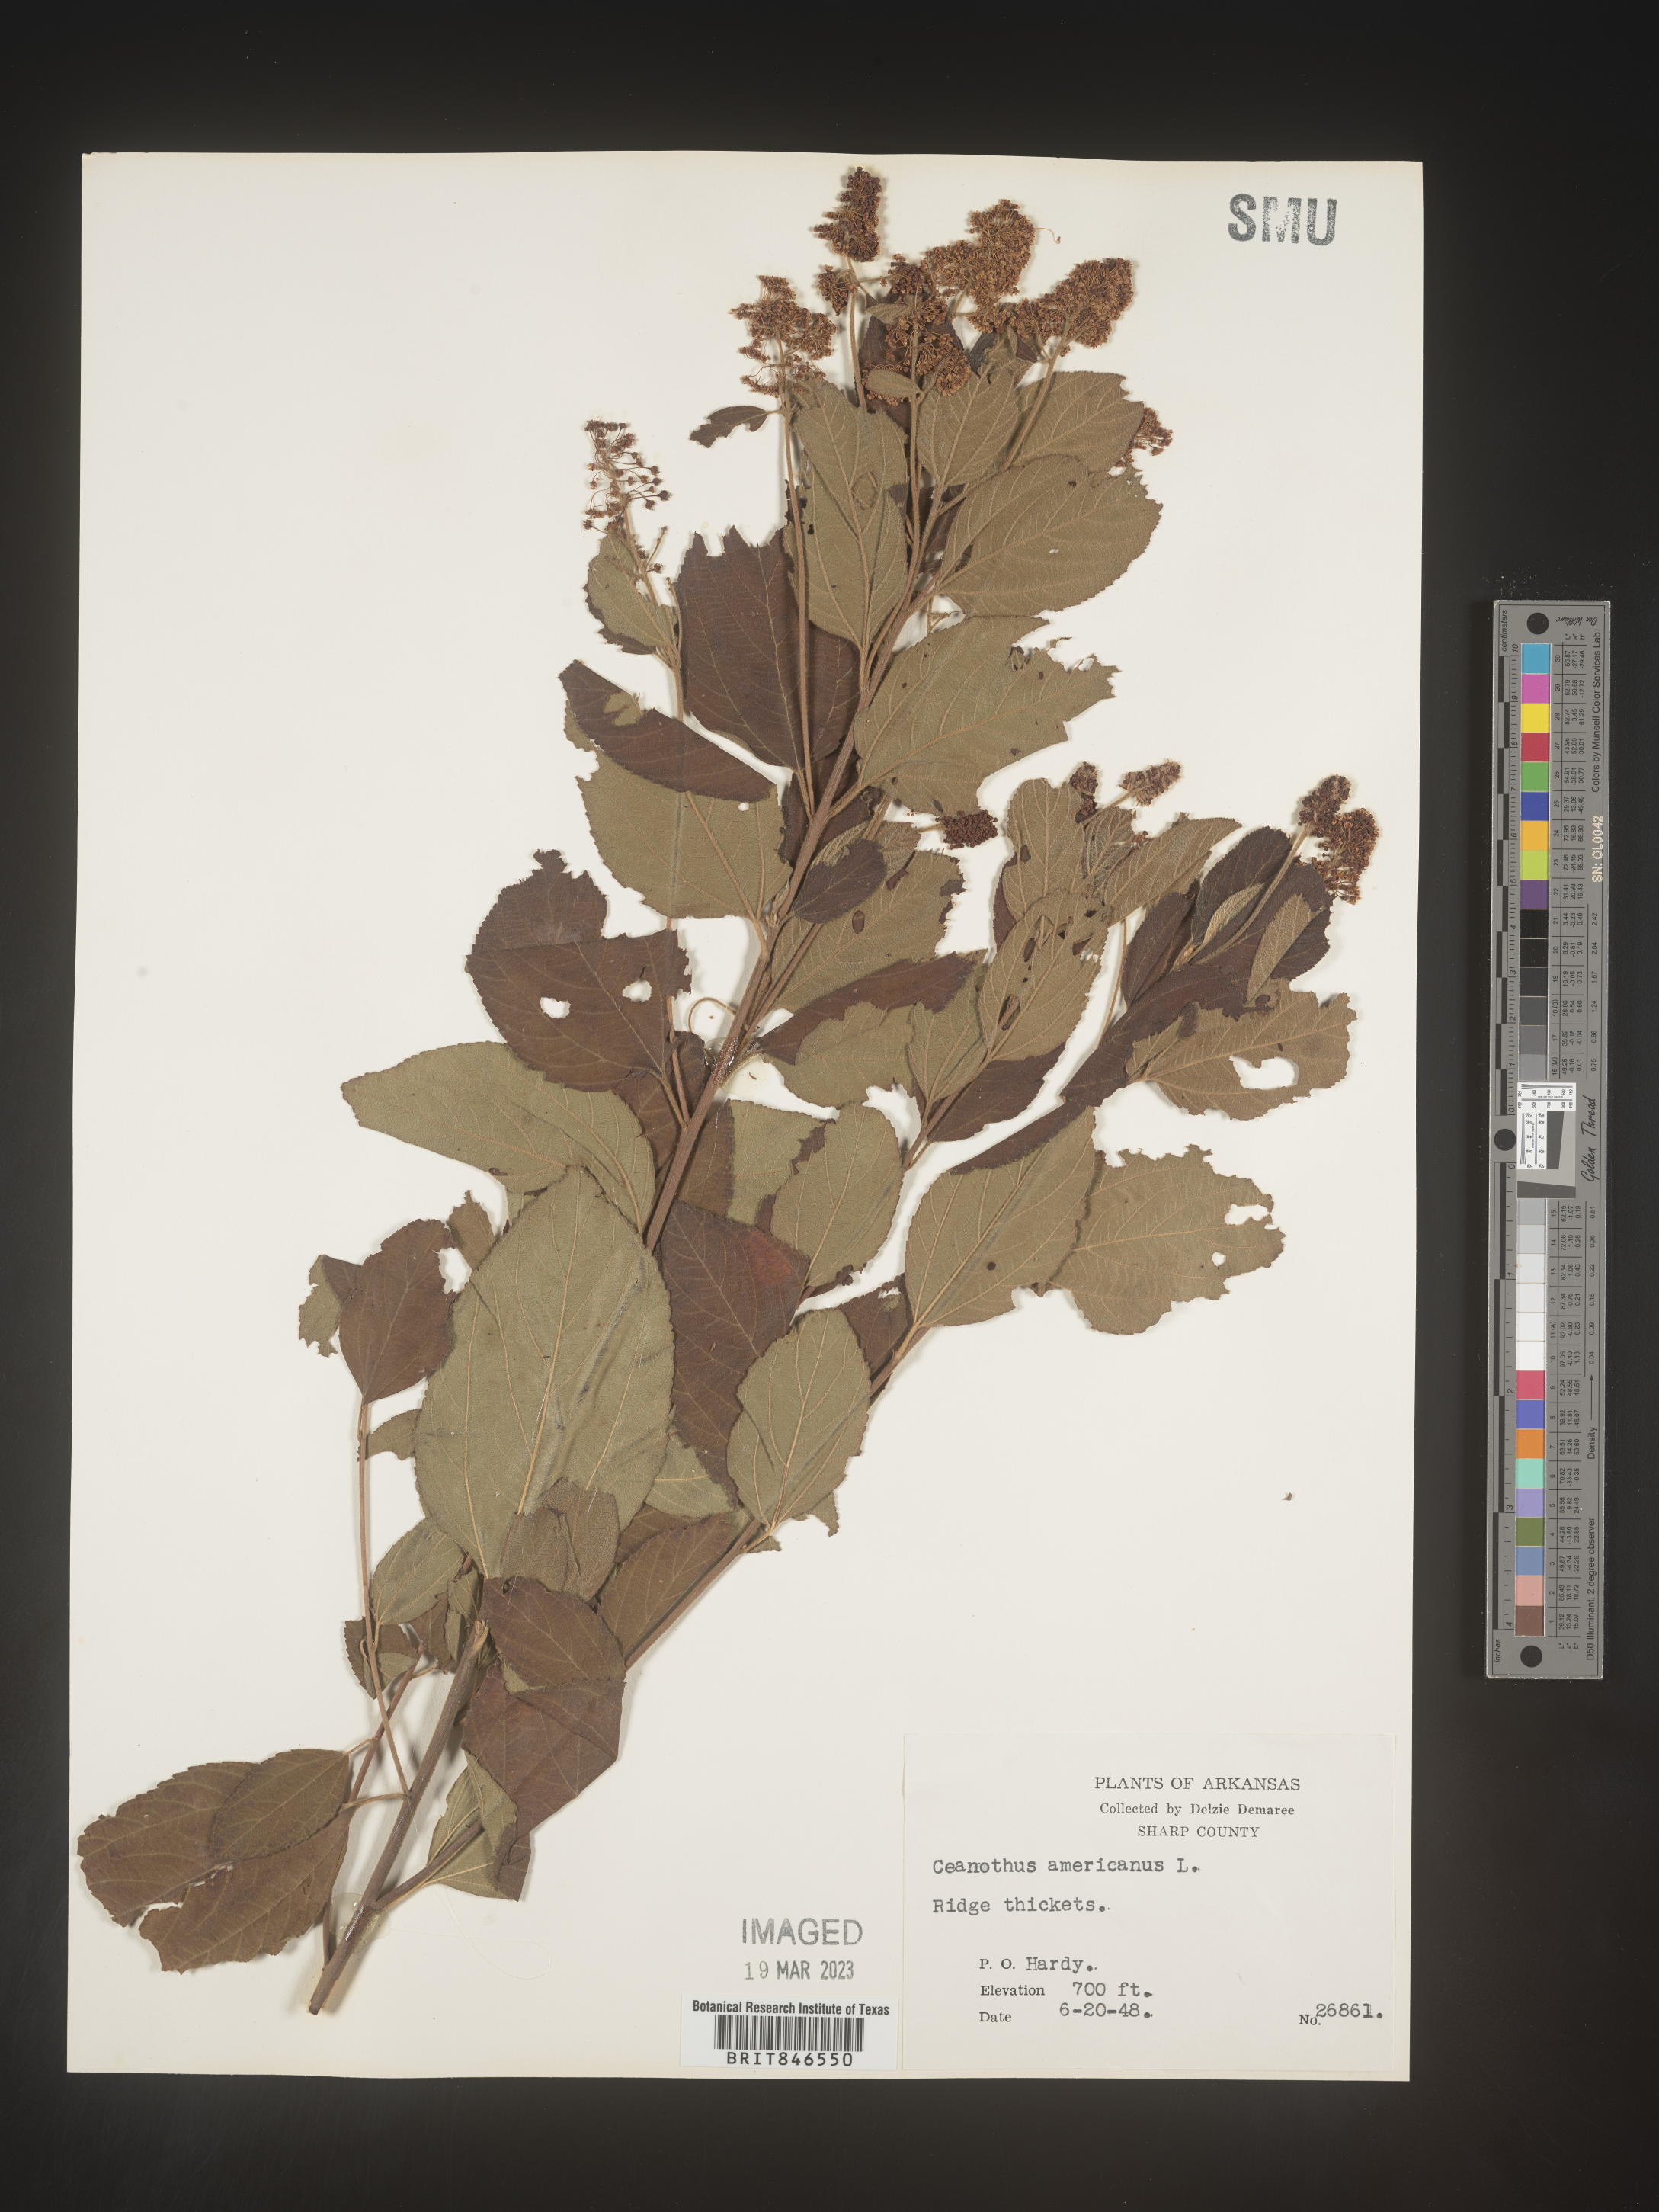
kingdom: Plantae
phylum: Tracheophyta
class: Magnoliopsida
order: Rosales
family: Rhamnaceae
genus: Ceanothus
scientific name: Ceanothus americanus
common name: Redroot
